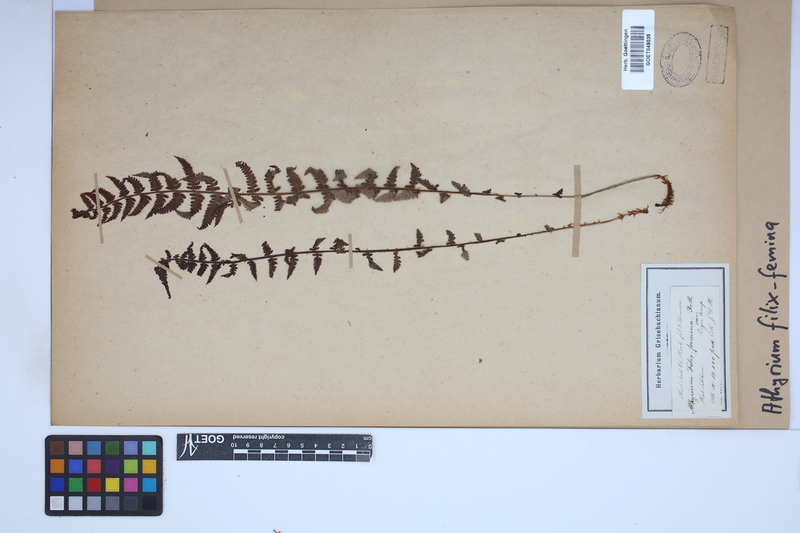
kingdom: Plantae
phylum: Tracheophyta
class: Polypodiopsida
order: Polypodiales
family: Athyriaceae
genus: Athyrium
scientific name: Athyrium filix-femina
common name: Lady fern
